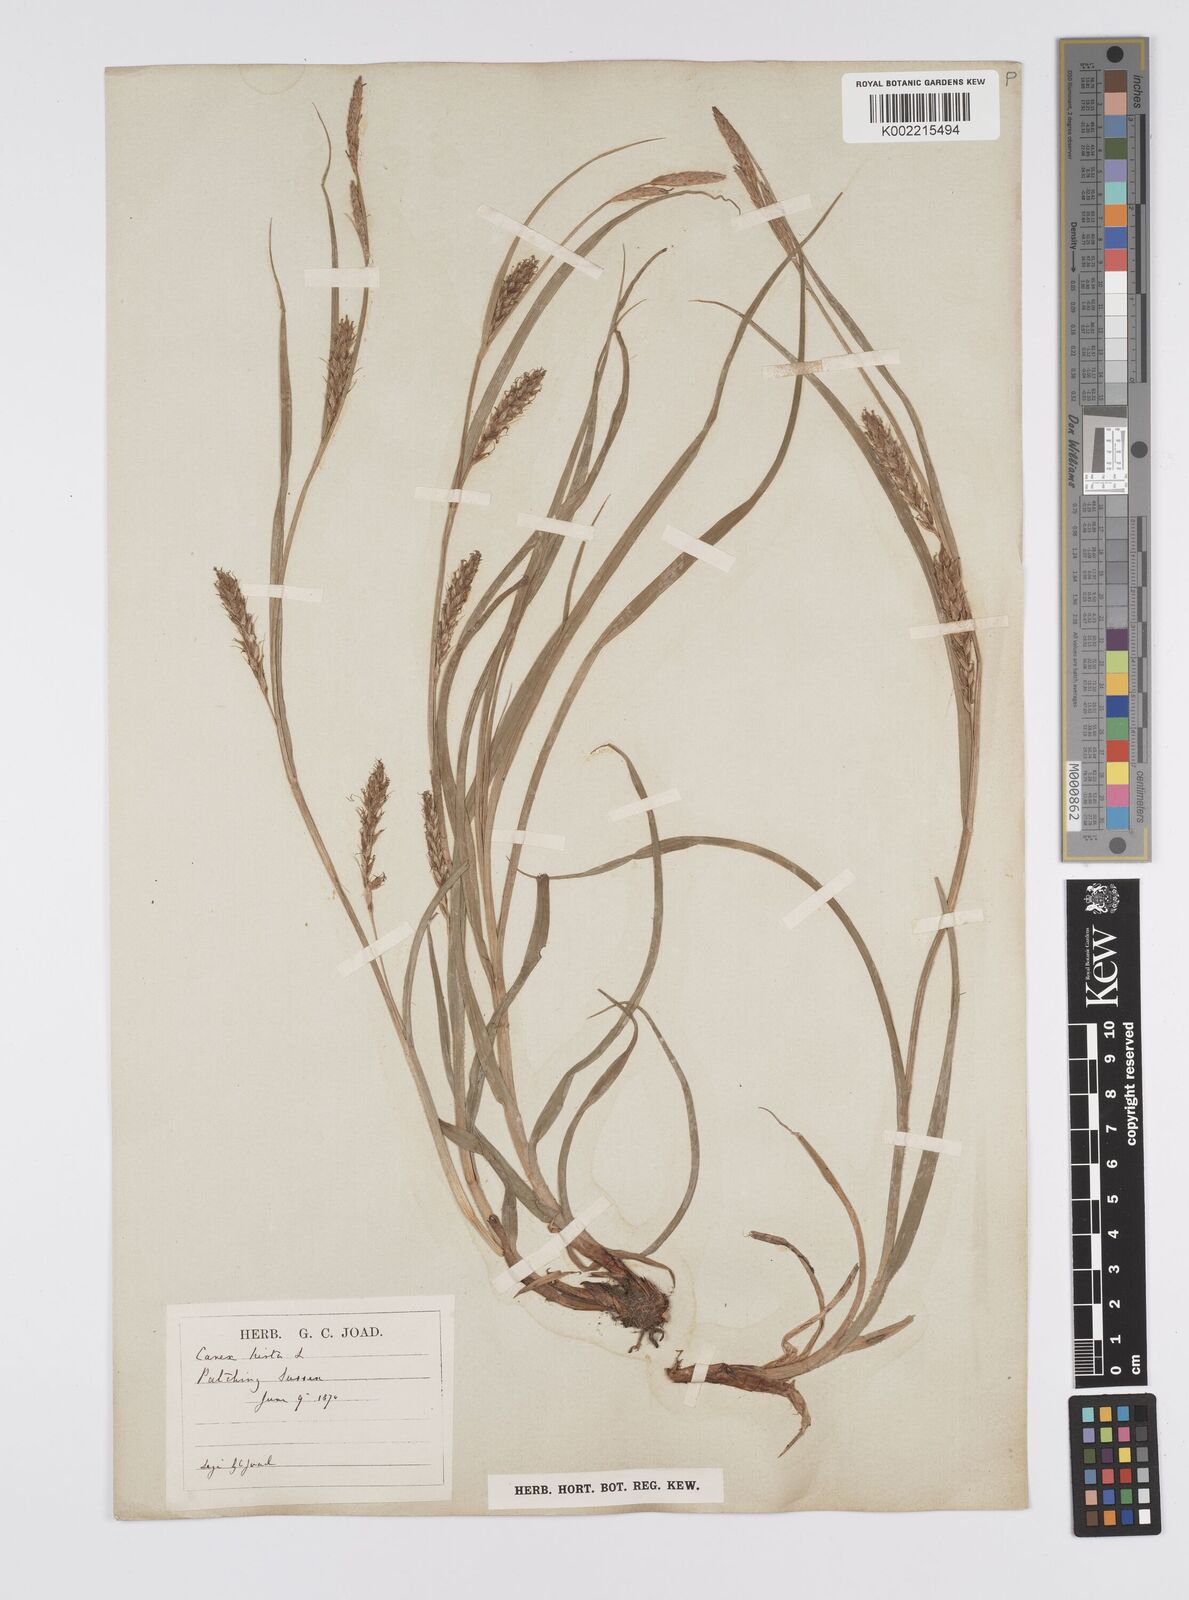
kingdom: Plantae
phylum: Tracheophyta
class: Liliopsida
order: Poales
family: Cyperaceae
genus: Carex
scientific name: Carex hirta
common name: Hairy sedge
